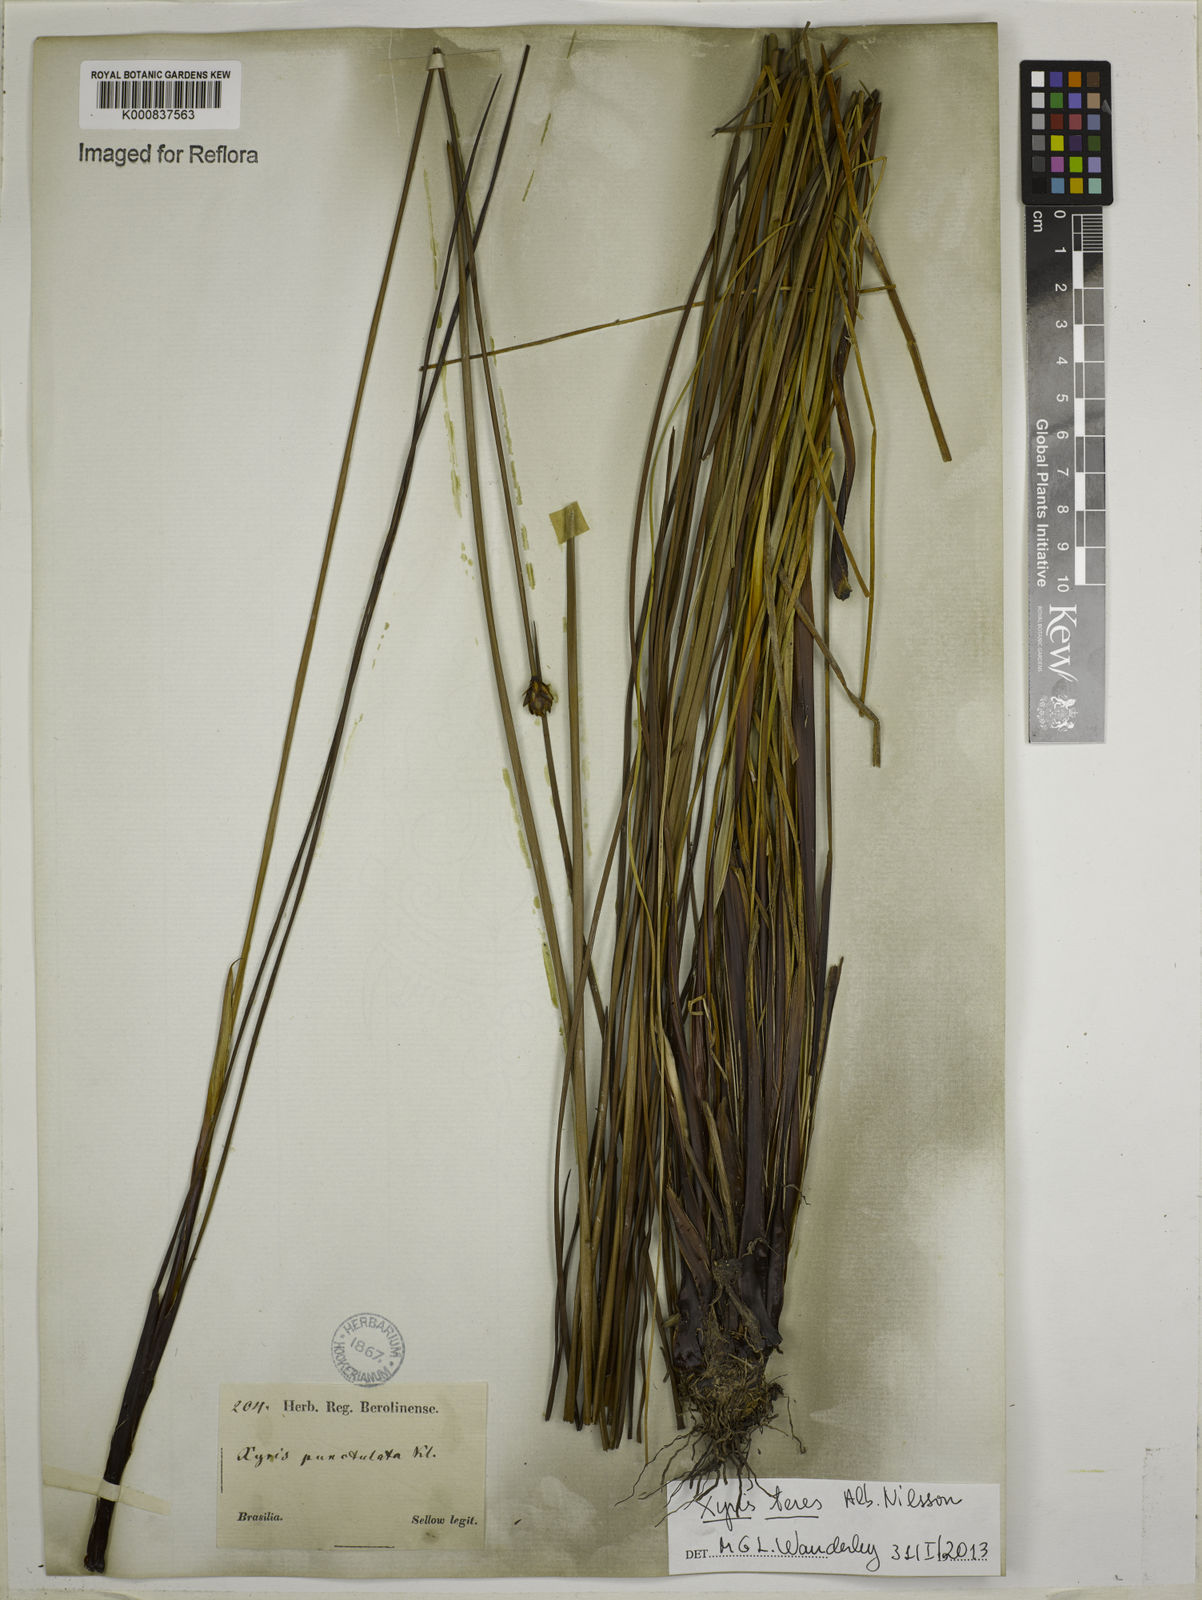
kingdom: Plantae
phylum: Tracheophyta
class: Liliopsida
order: Poales
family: Xyridaceae
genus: Xyris
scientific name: Xyris teres
